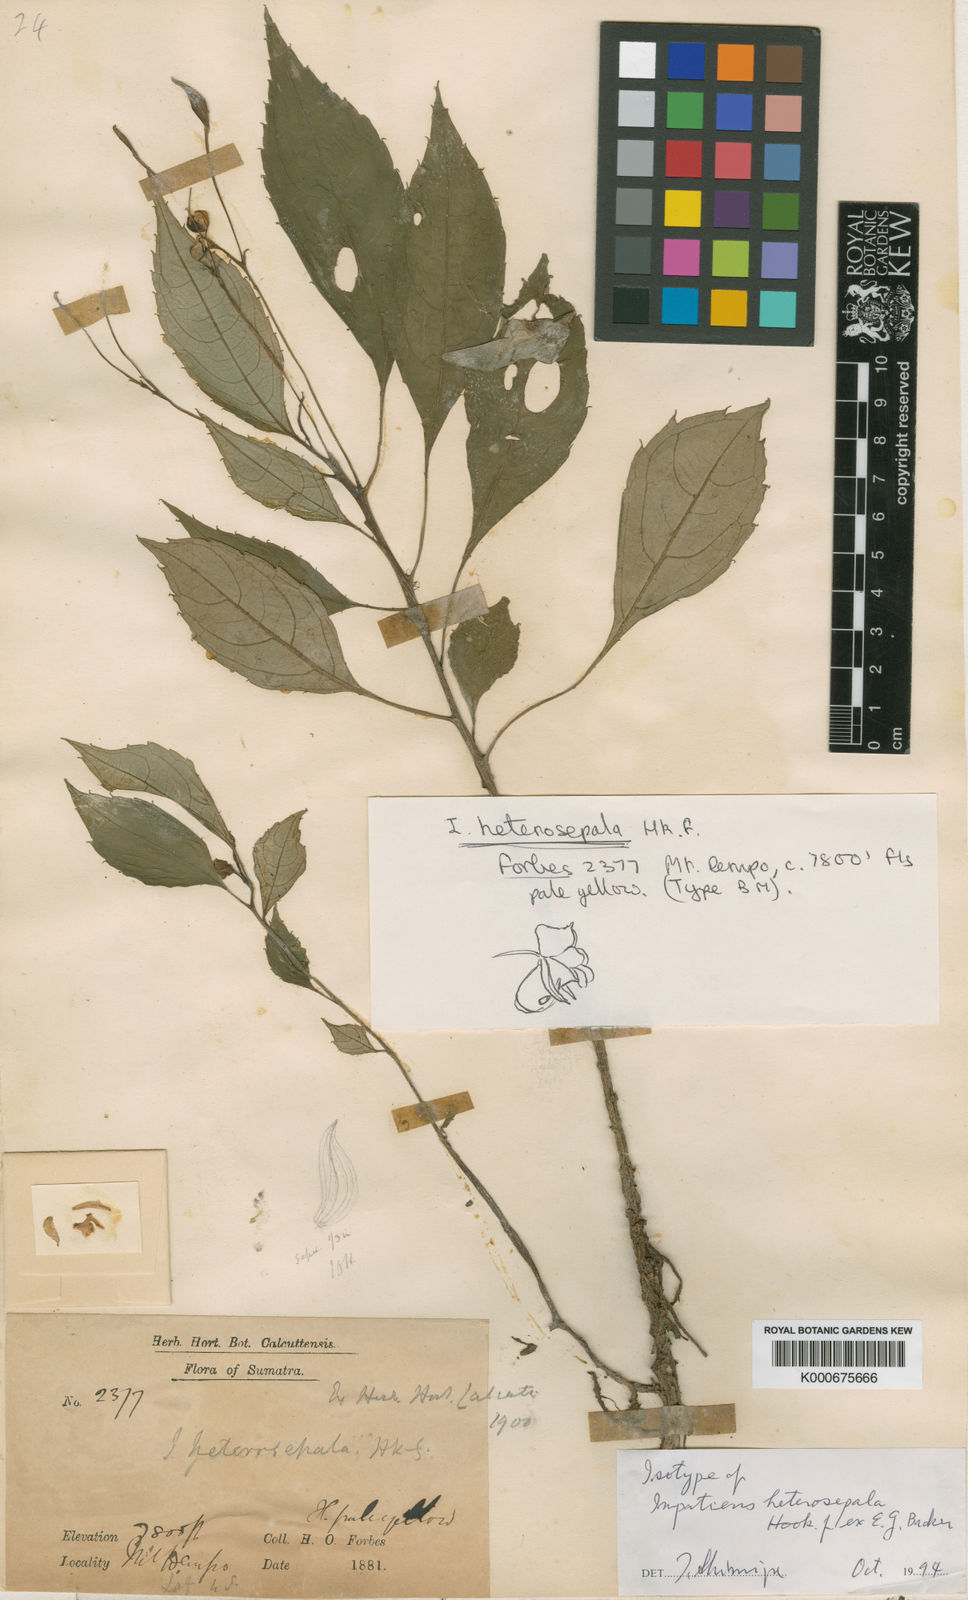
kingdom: Plantae
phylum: Tracheophyta
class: Magnoliopsida
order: Ericales
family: Balsaminaceae
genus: Impatiens
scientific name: Impatiens heterosepala
